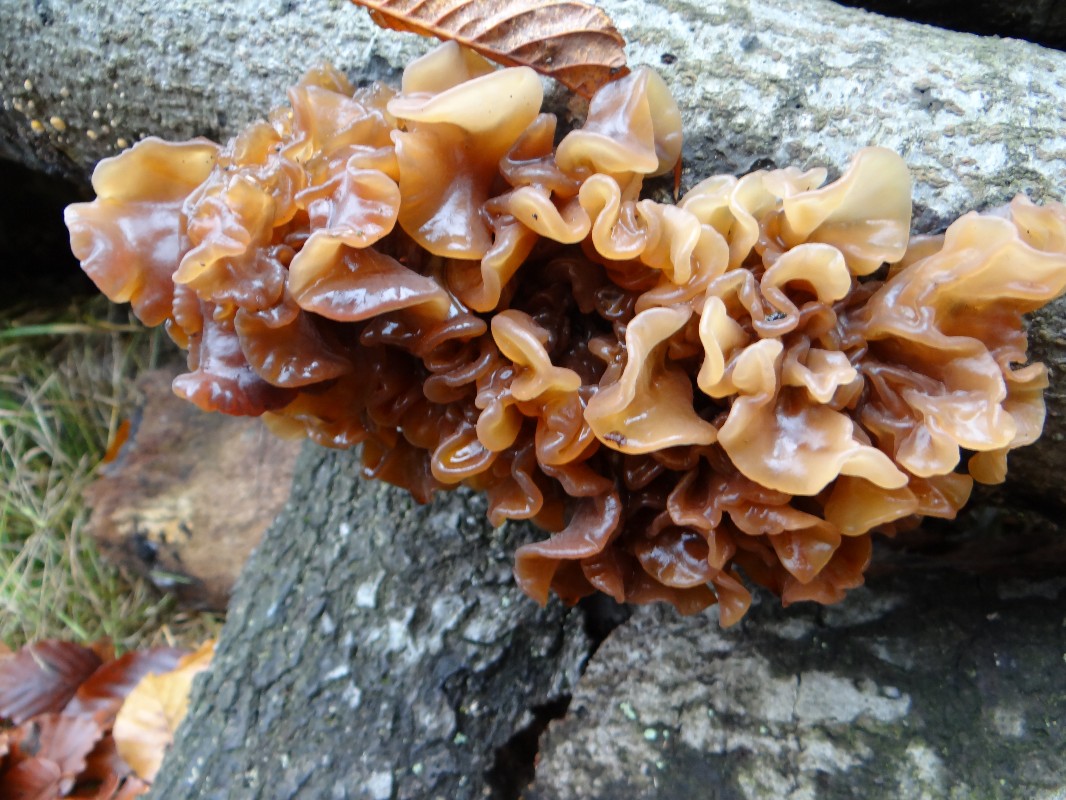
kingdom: Fungi
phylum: Basidiomycota
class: Tremellomycetes
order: Tremellales
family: Tremellaceae
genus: Phaeotremella
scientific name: Phaeotremella frondosa
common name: kæmpe-bævresvamp
